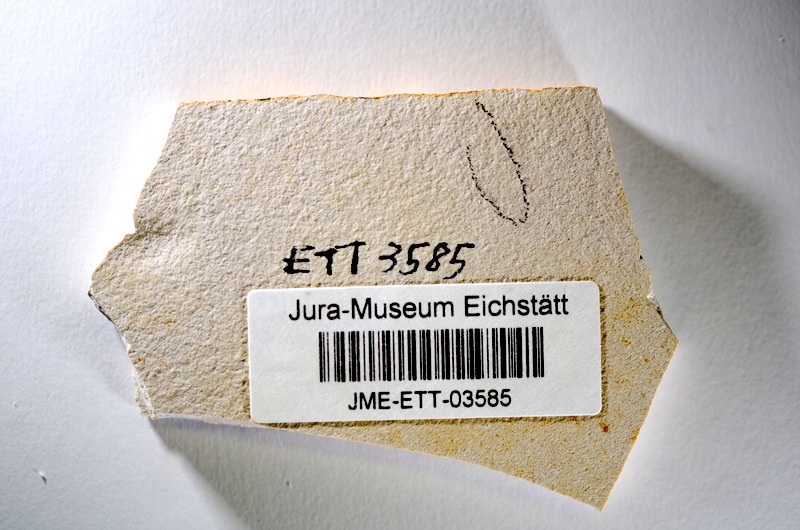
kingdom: Animalia
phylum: Chordata
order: Salmoniformes
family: Orthogonikleithridae
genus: Orthogonikleithrus
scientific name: Orthogonikleithrus hoelli
